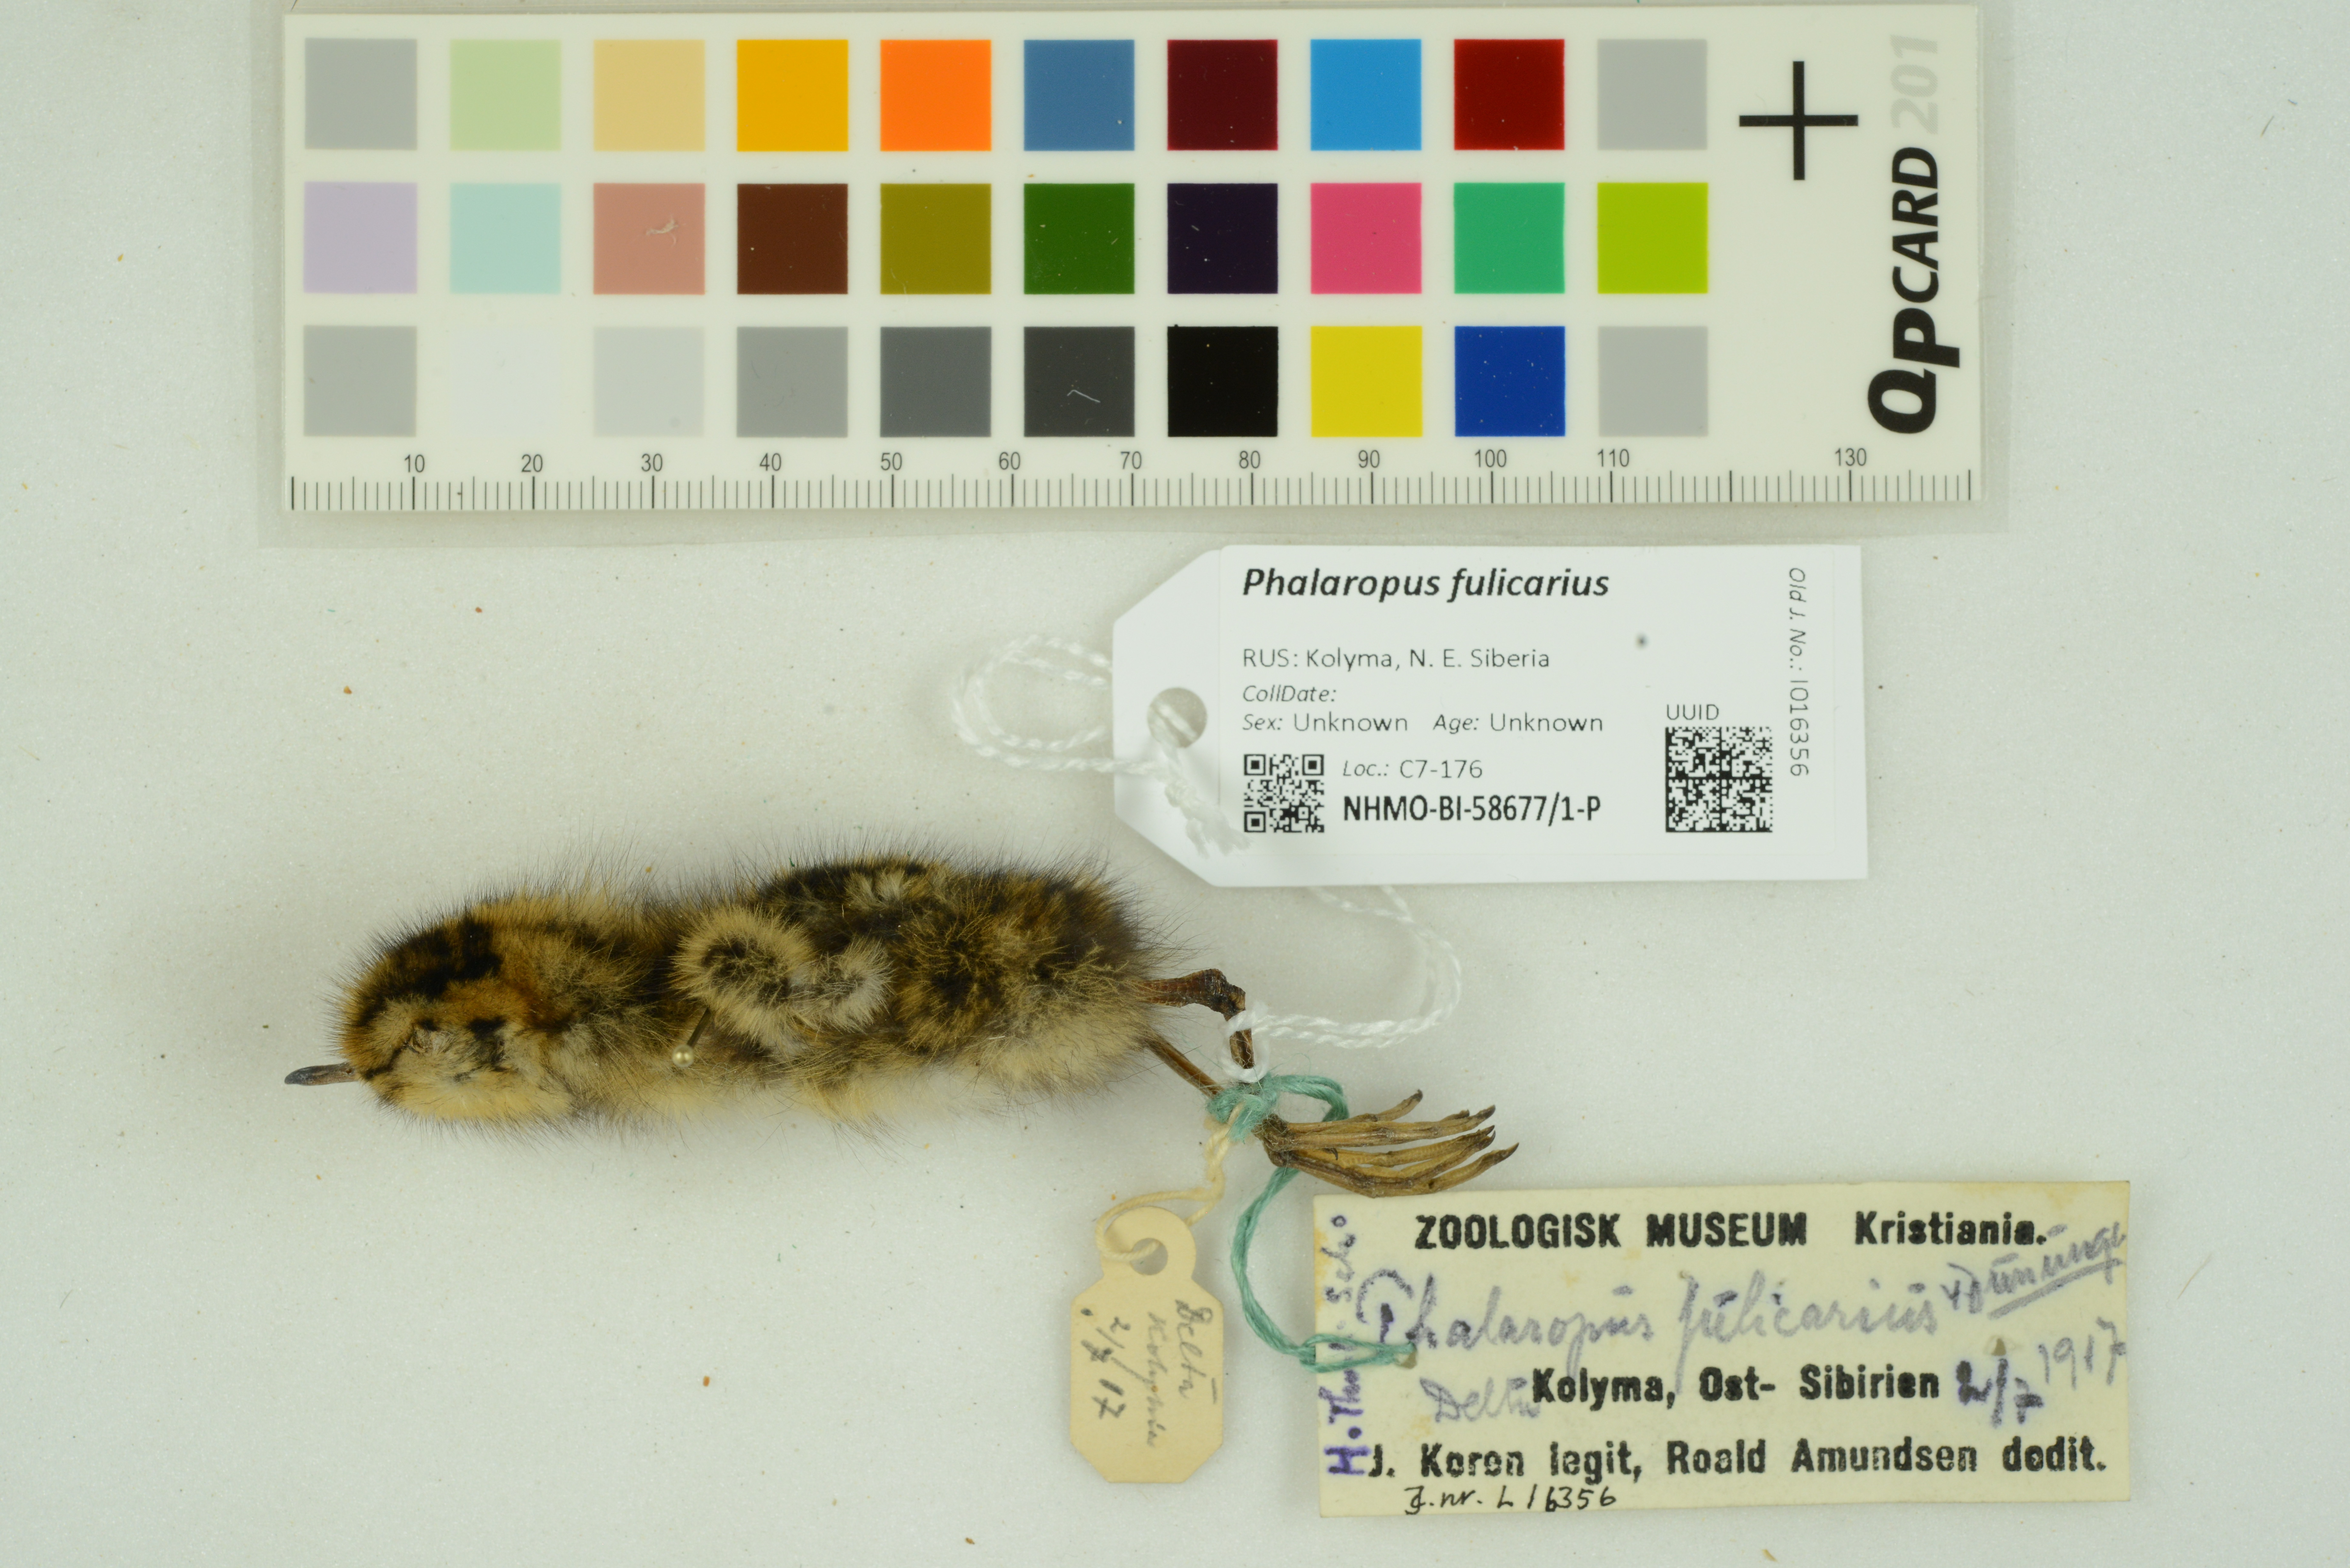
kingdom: Animalia
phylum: Chordata
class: Aves
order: Charadriiformes
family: Scolopacidae
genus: Phalaropus
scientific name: Phalaropus fulicarius
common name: Red phalarope
